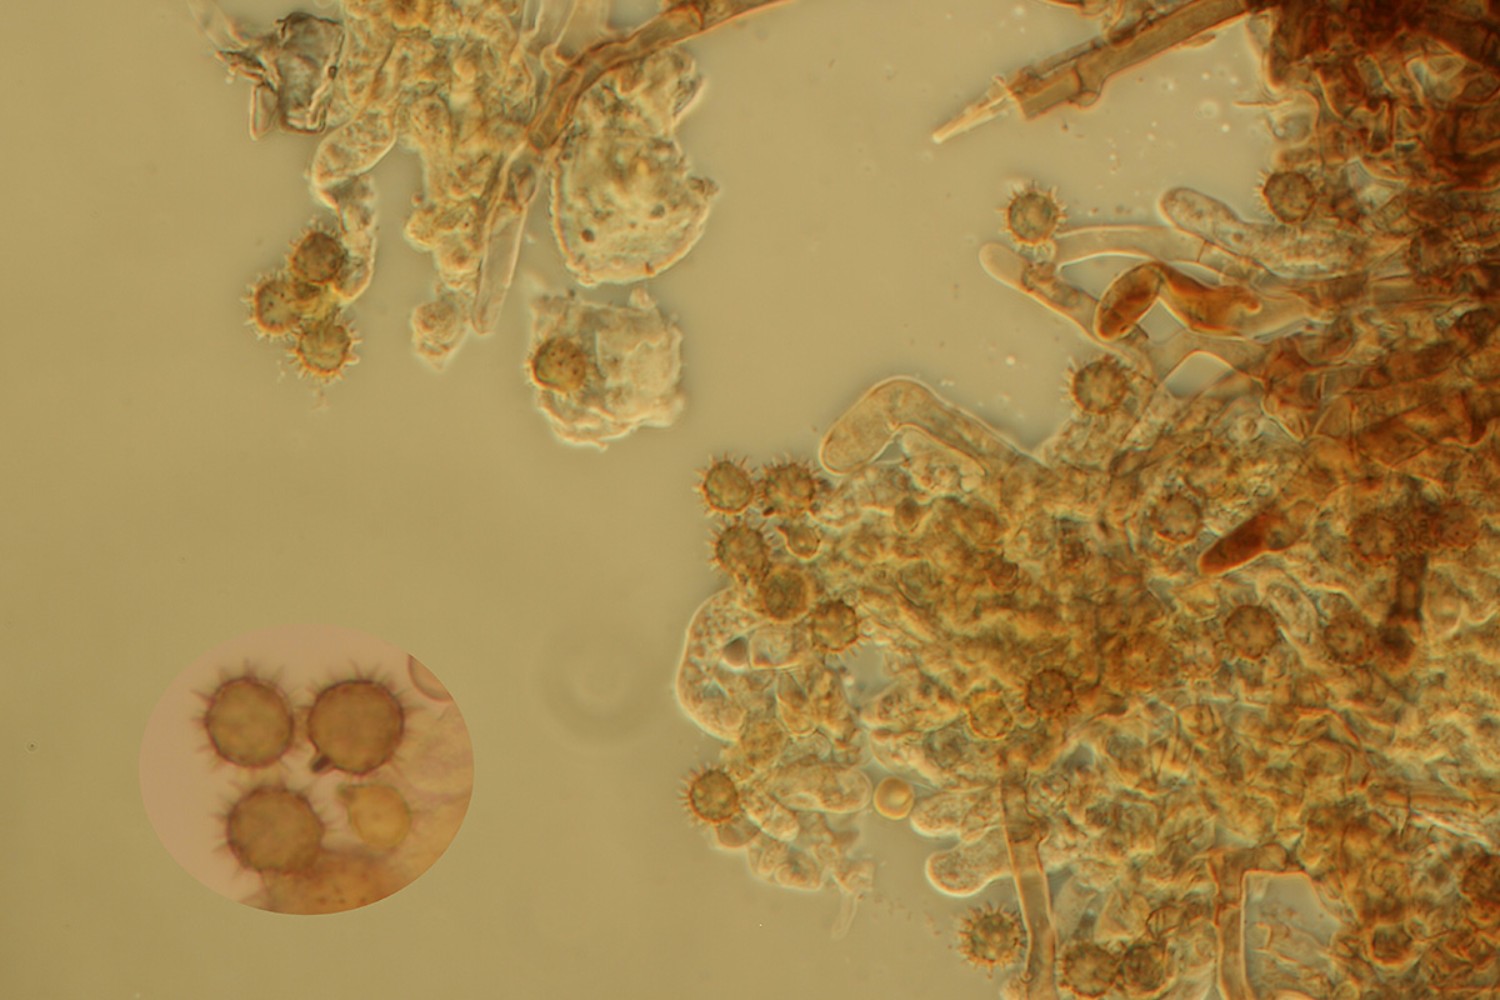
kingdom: Fungi
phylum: Basidiomycota
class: Agaricomycetes
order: Thelephorales
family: Thelephoraceae
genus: Tomentella
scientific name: Tomentella bryophila
